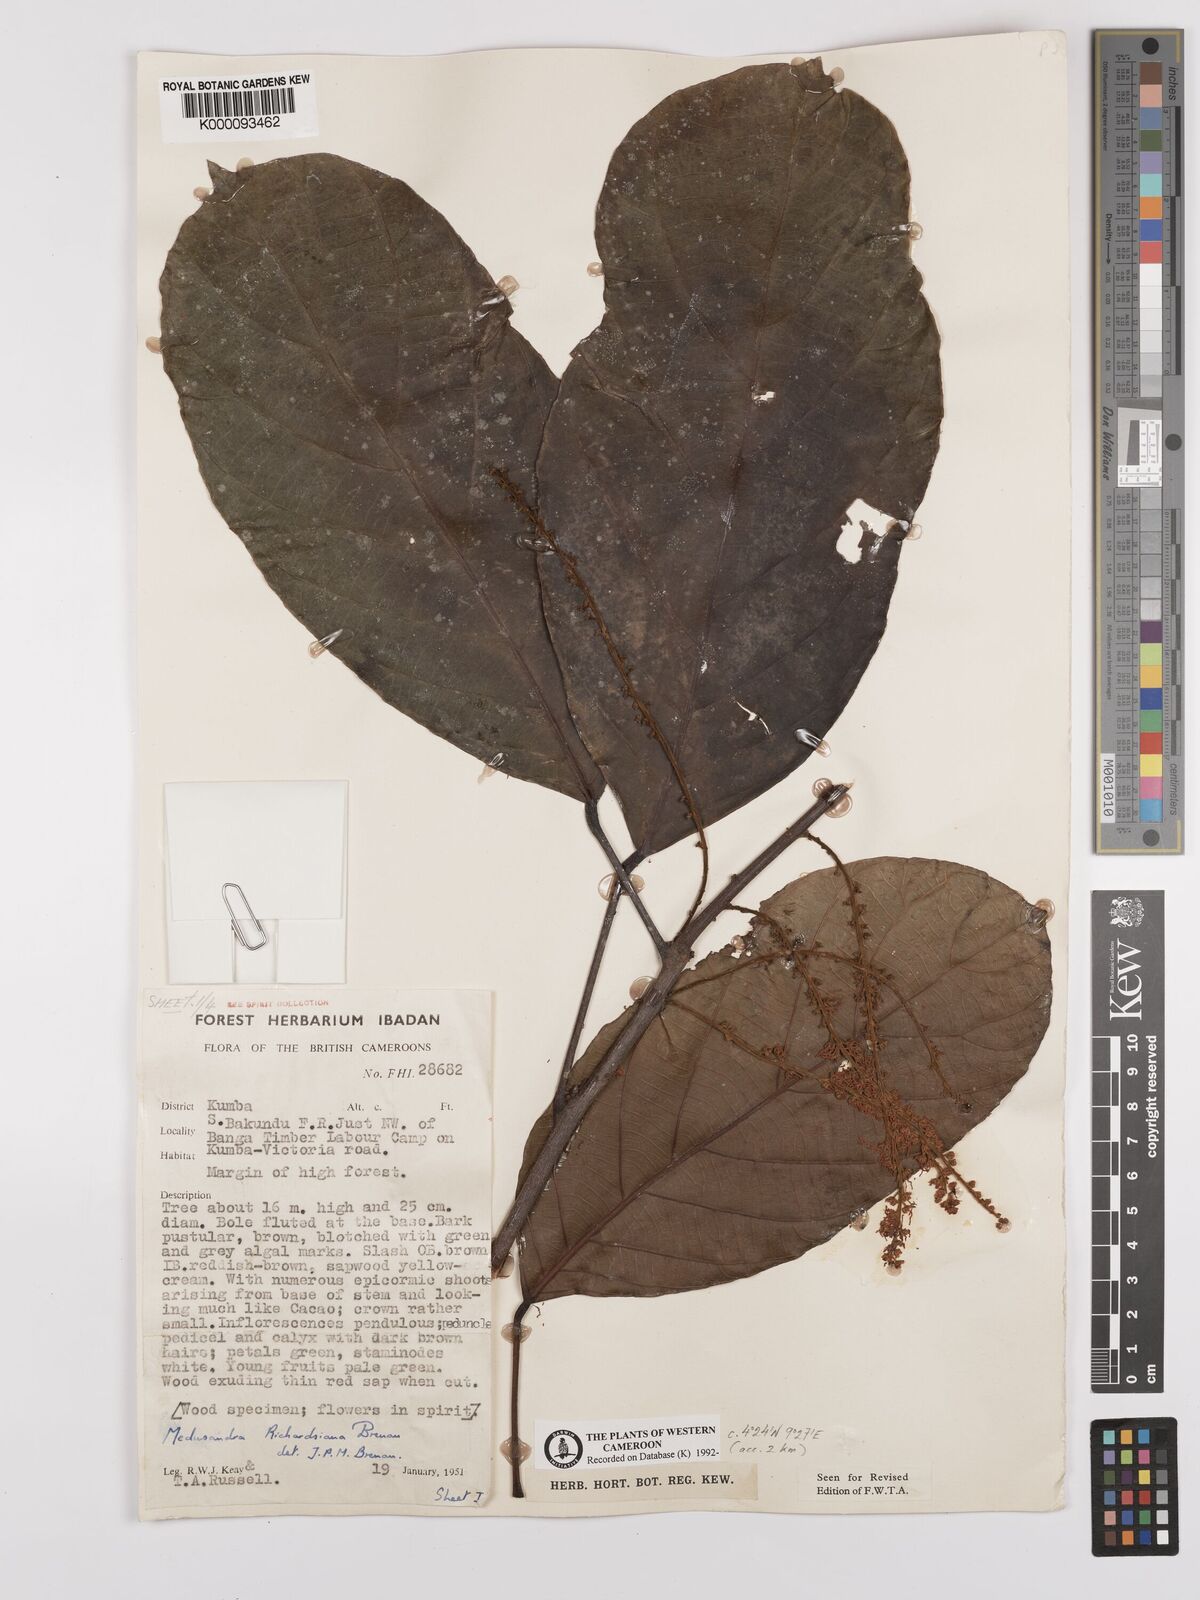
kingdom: Plantae
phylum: Tracheophyta
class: Magnoliopsida
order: Saxifragales
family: Peridiscaceae
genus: Medusandra
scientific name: Medusandra richardsiana
